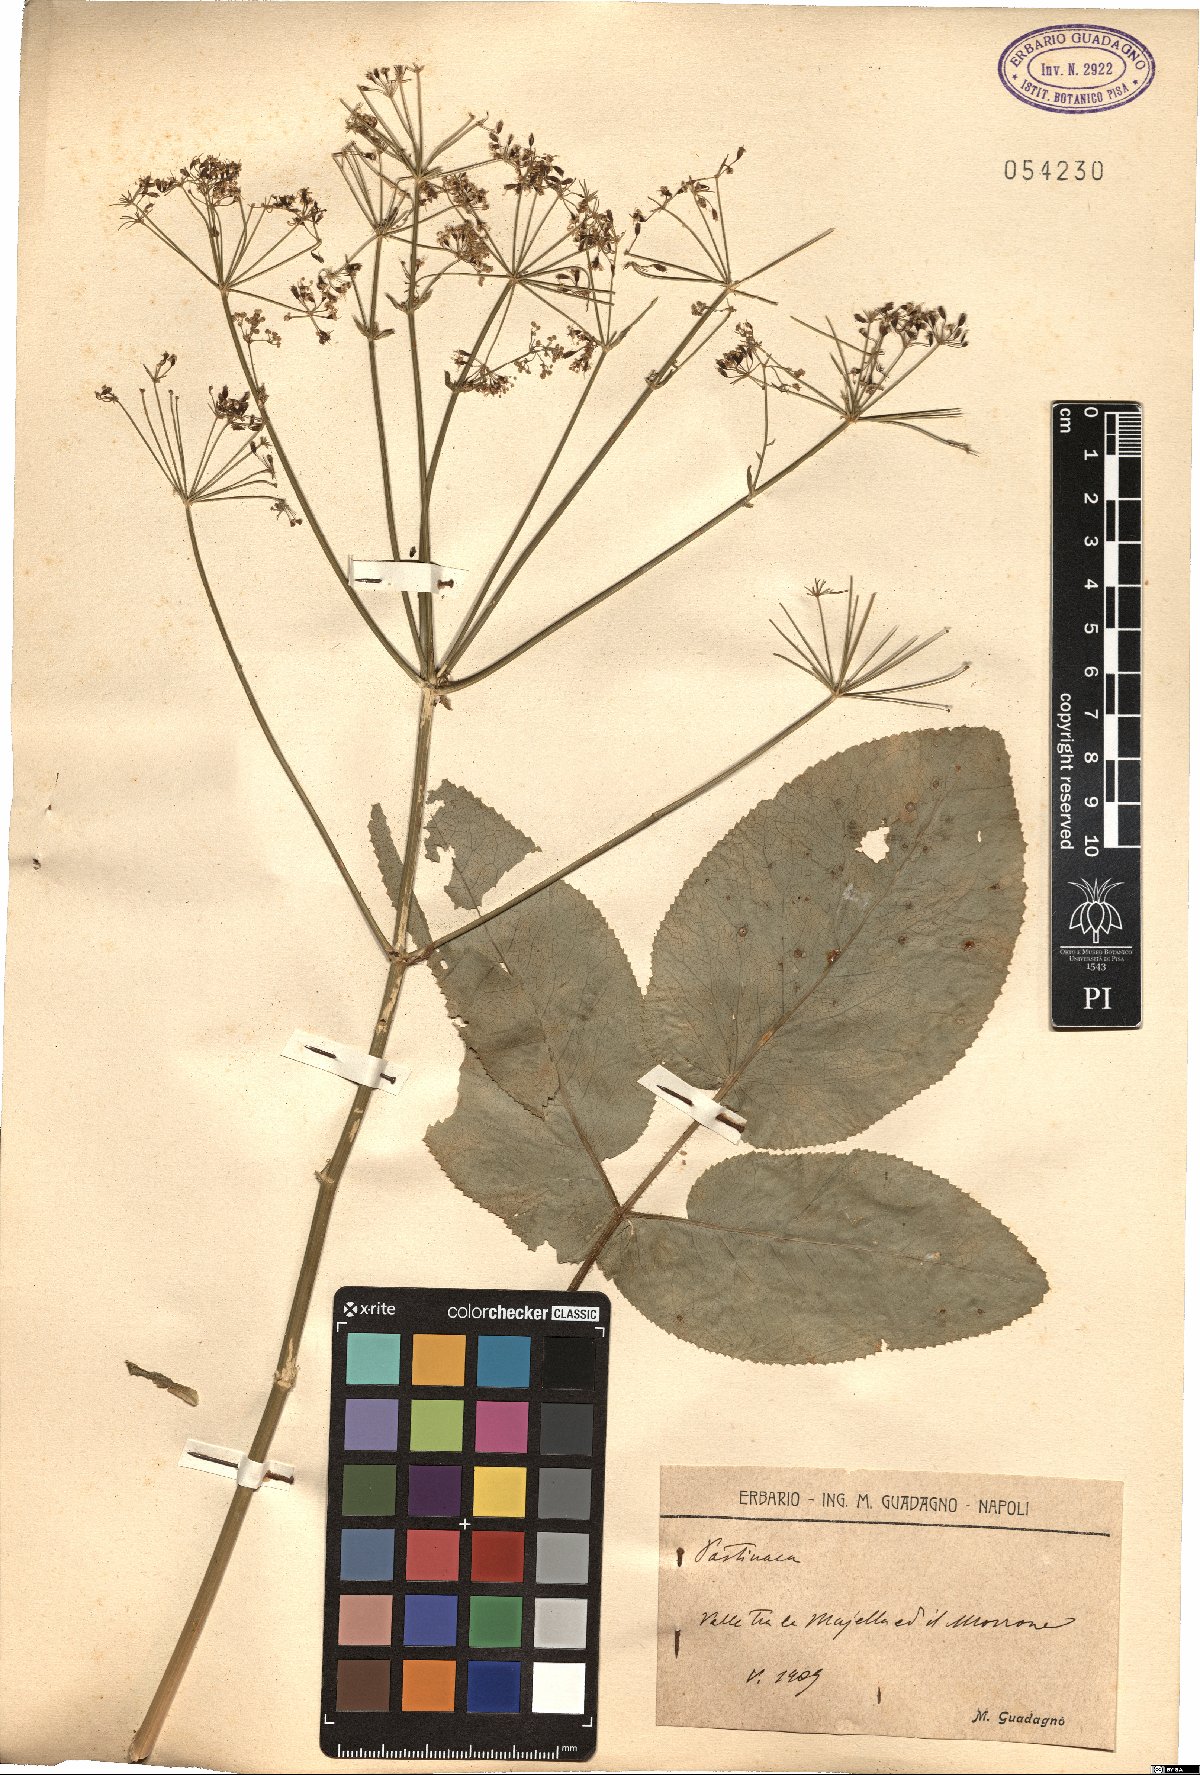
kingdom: Plantae
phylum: Tracheophyta
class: Magnoliopsida
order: Apiales
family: Apiaceae
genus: Pastinaca
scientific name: Pastinaca
